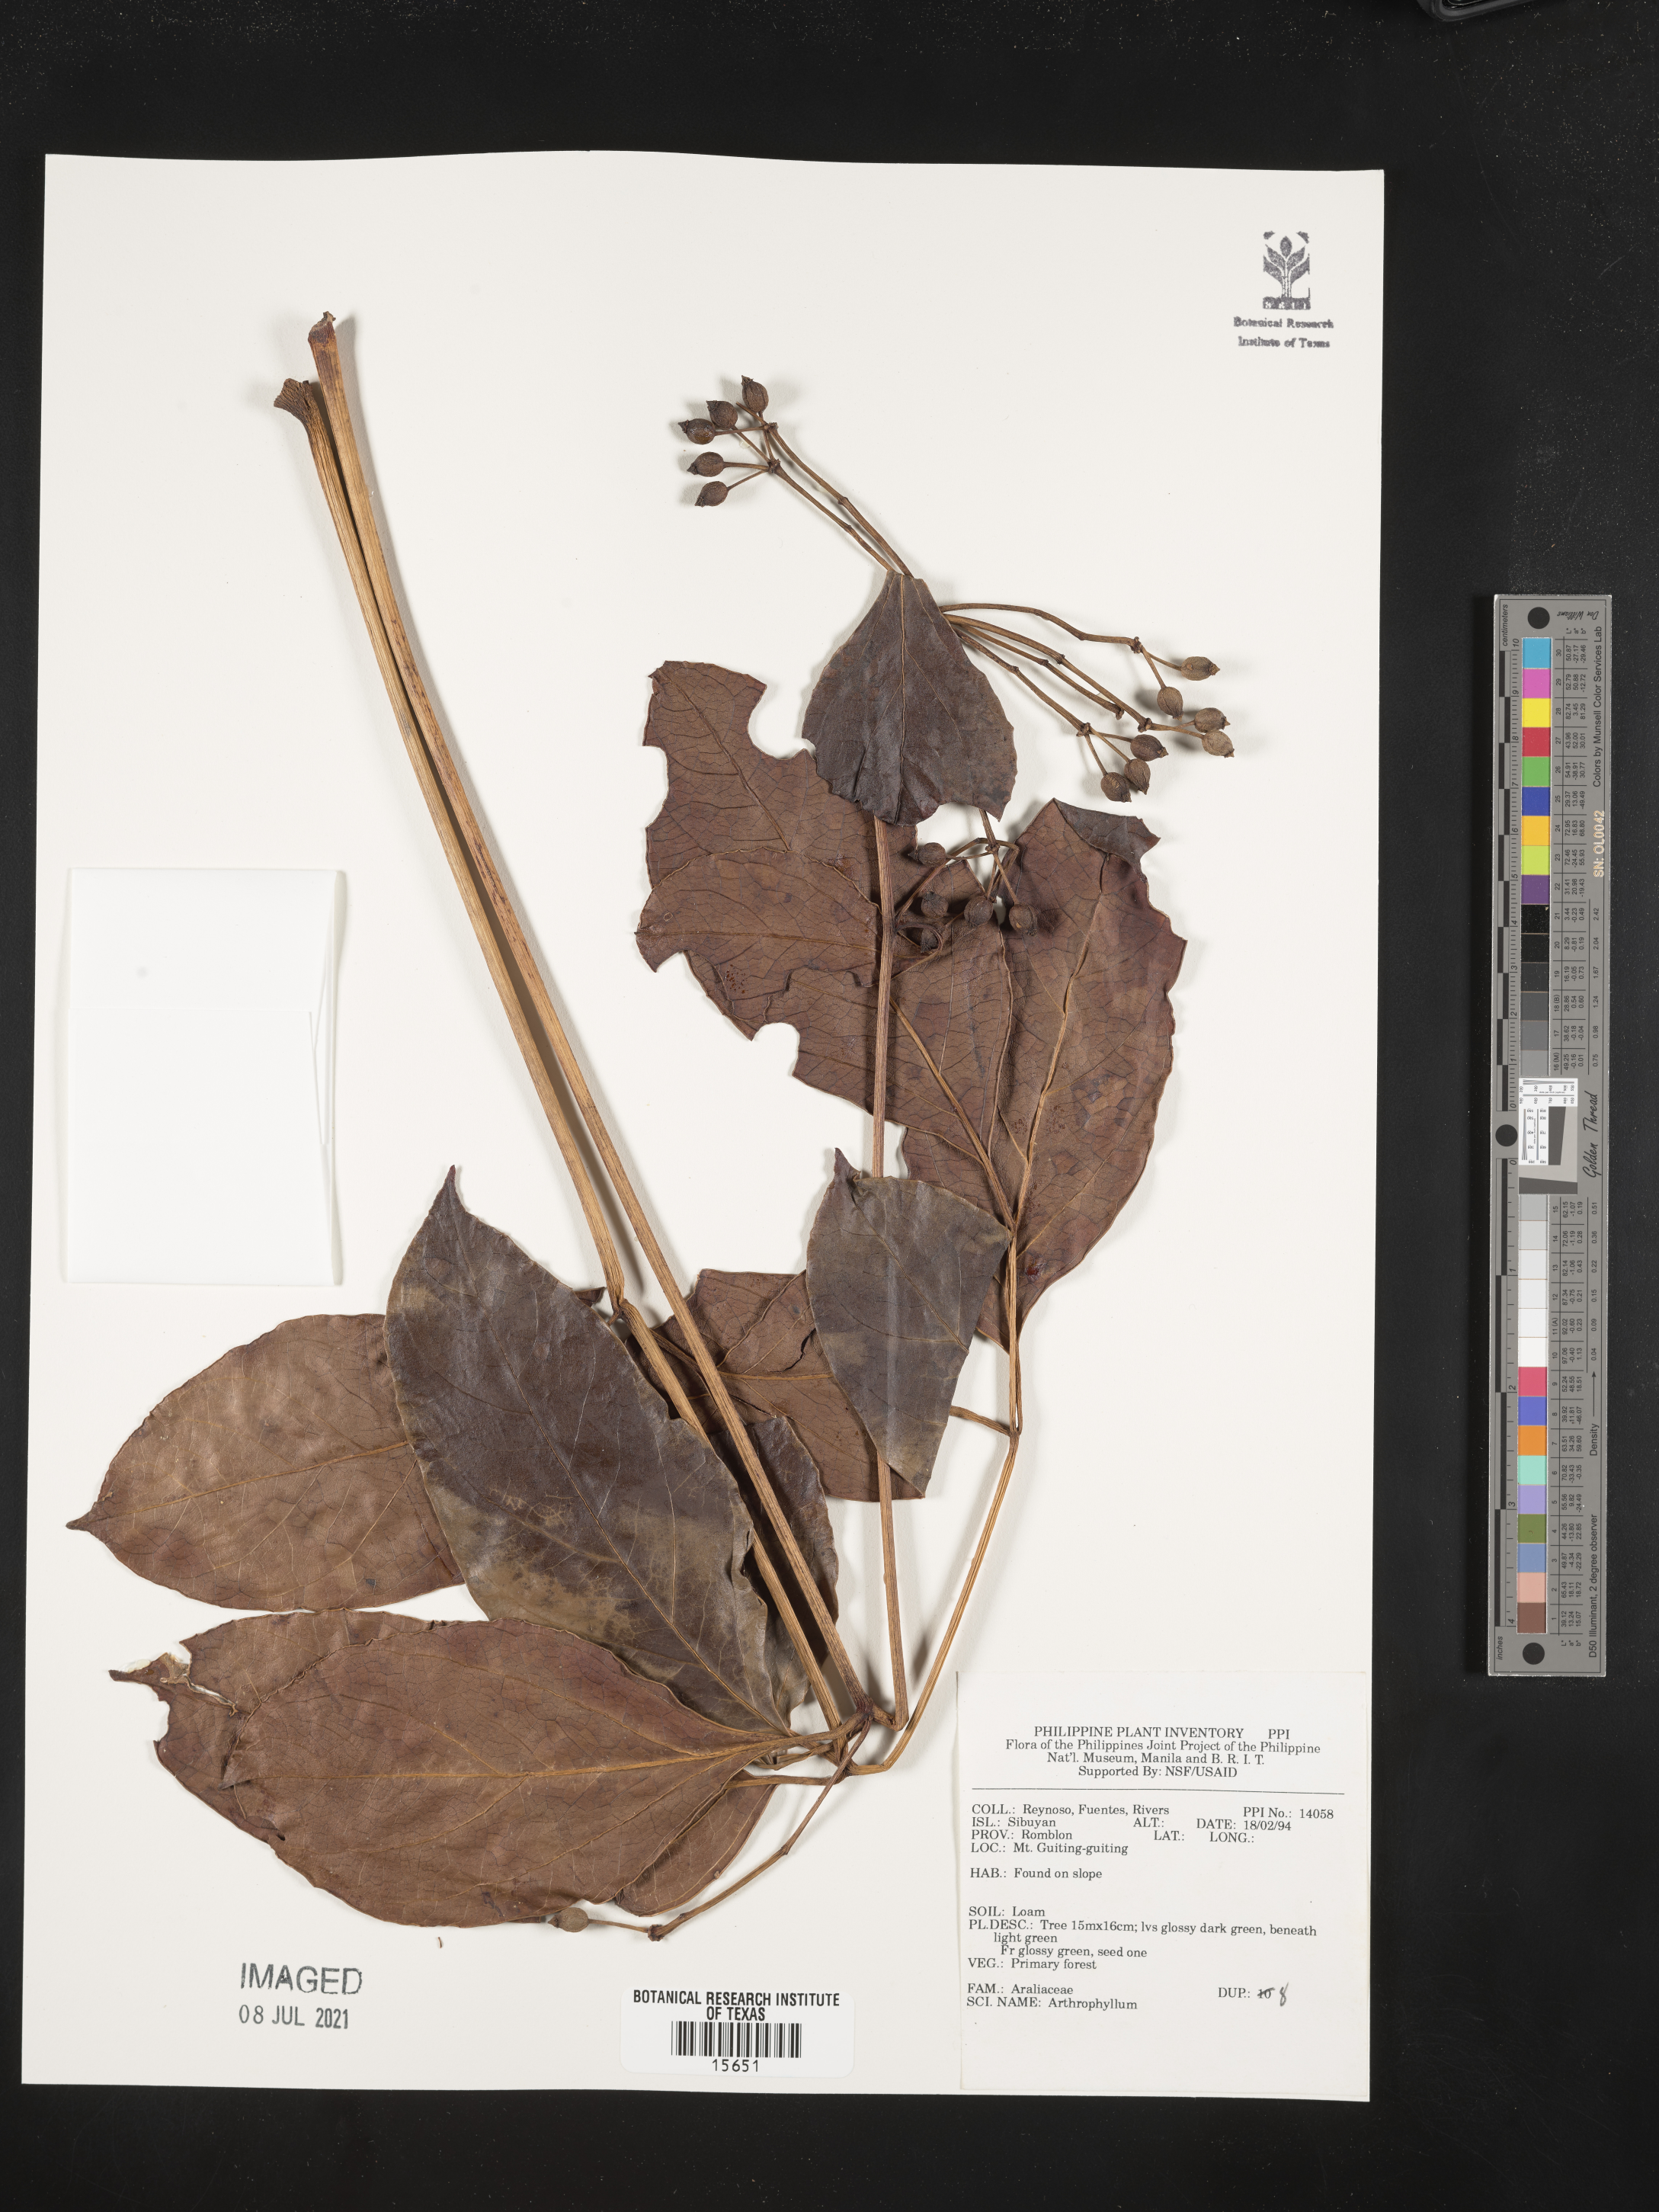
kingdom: Plantae
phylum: Tracheophyta
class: Magnoliopsida
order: Lamiales
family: Bignoniaceae
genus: Arthrophyllum
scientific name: Arthrophyllum
